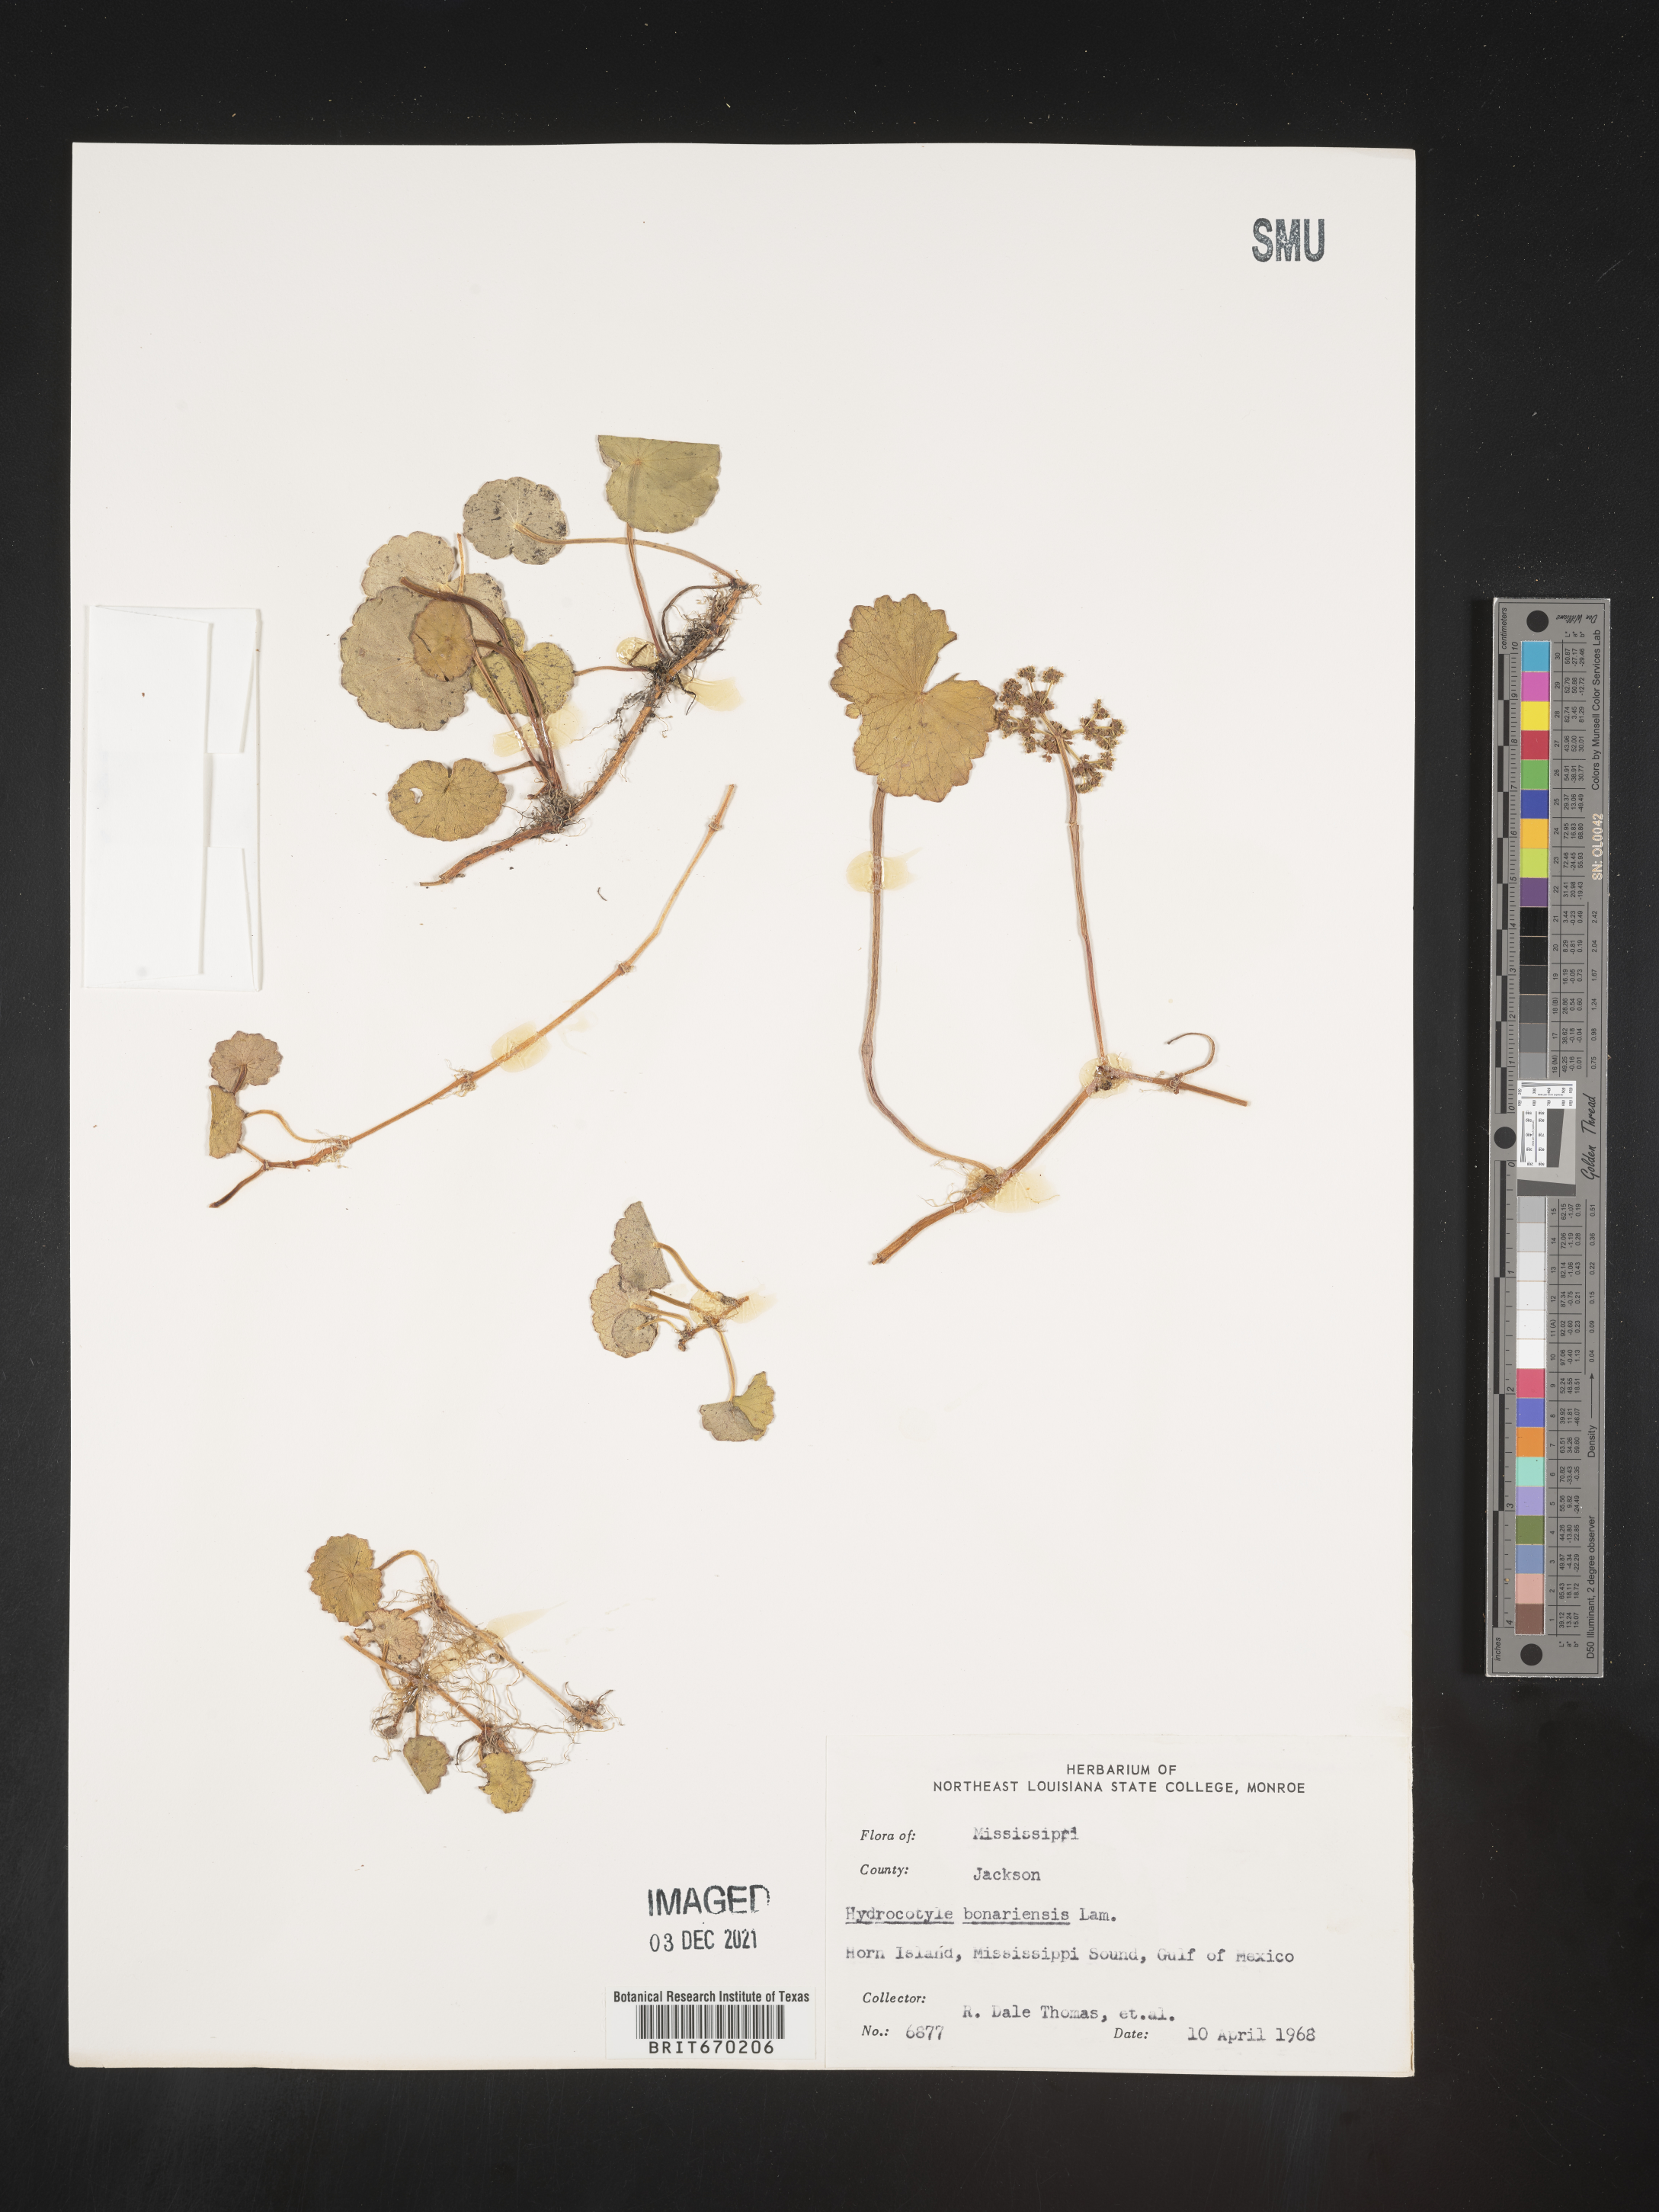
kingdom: Plantae
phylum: Tracheophyta
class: Magnoliopsida
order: Apiales
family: Araliaceae
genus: Hydrocotyle
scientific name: Hydrocotyle bonariensis
